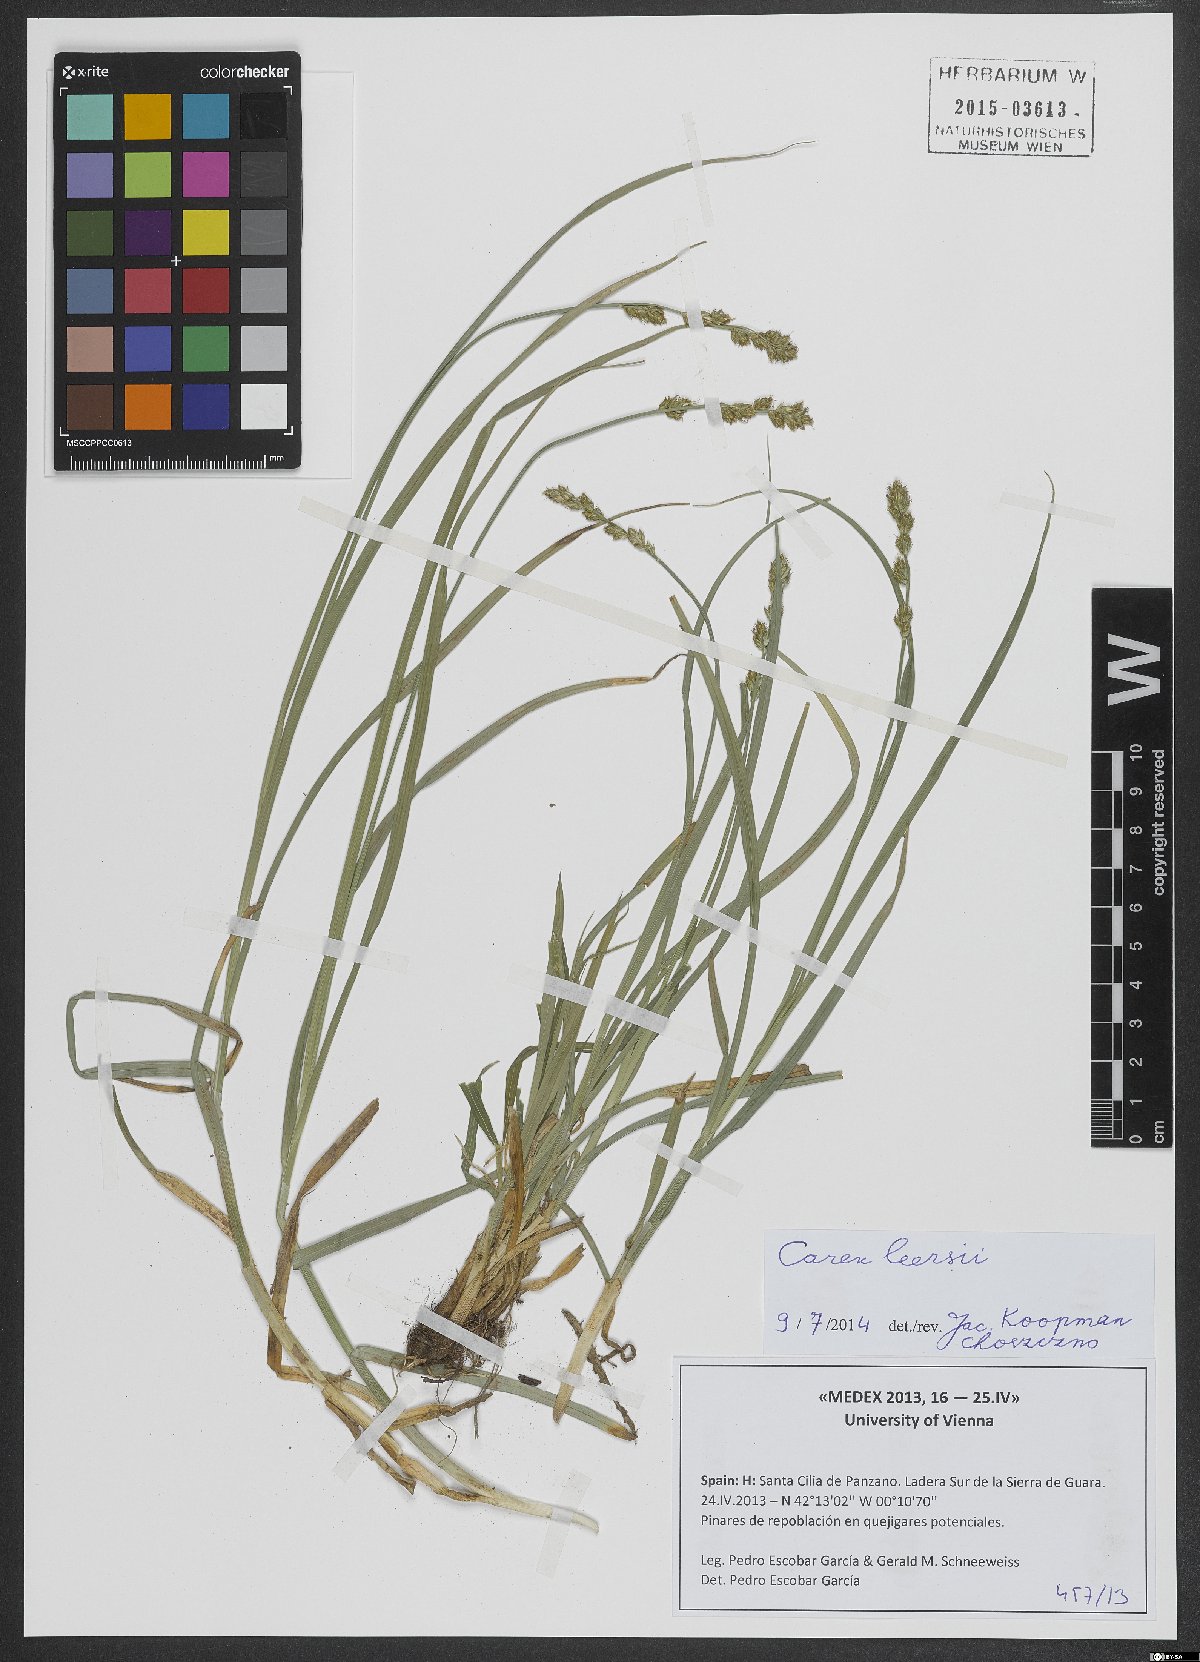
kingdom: Plantae
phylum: Tracheophyta
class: Liliopsida
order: Poales
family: Cyperaceae
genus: Carex
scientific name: Carex leersii
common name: Leers' sedge
